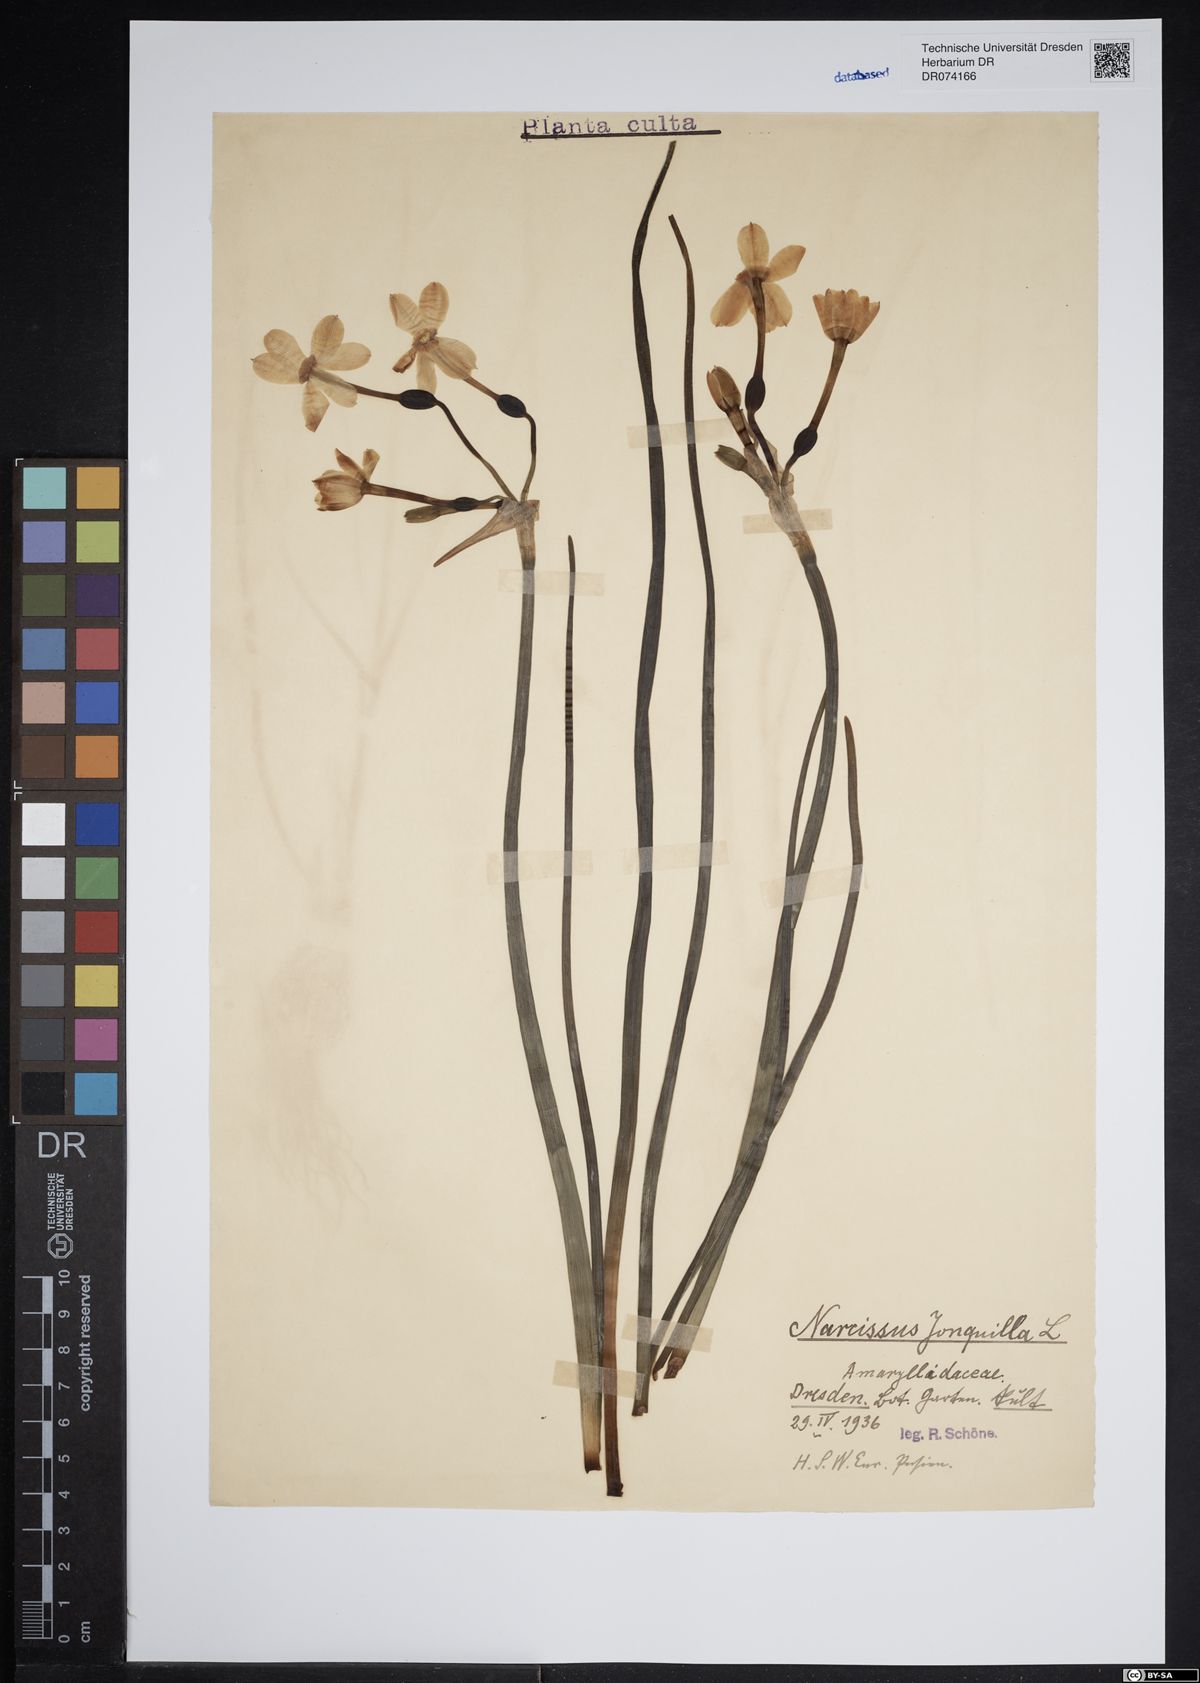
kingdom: Plantae
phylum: Tracheophyta
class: Liliopsida
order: Asparagales
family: Amaryllidaceae
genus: Narcissus
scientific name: Narcissus jonquilla
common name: Jonquil
